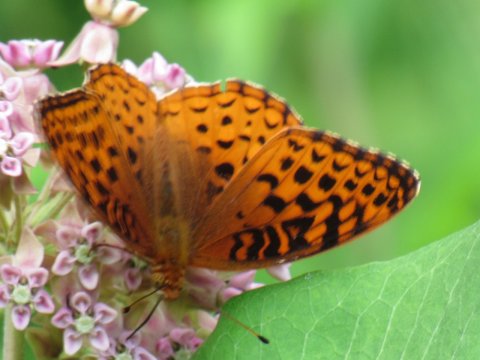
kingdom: Animalia
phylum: Arthropoda
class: Insecta
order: Lepidoptera
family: Nymphalidae
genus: Speyeria
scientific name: Speyeria aphrodite
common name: Aphrodite Fritillary
